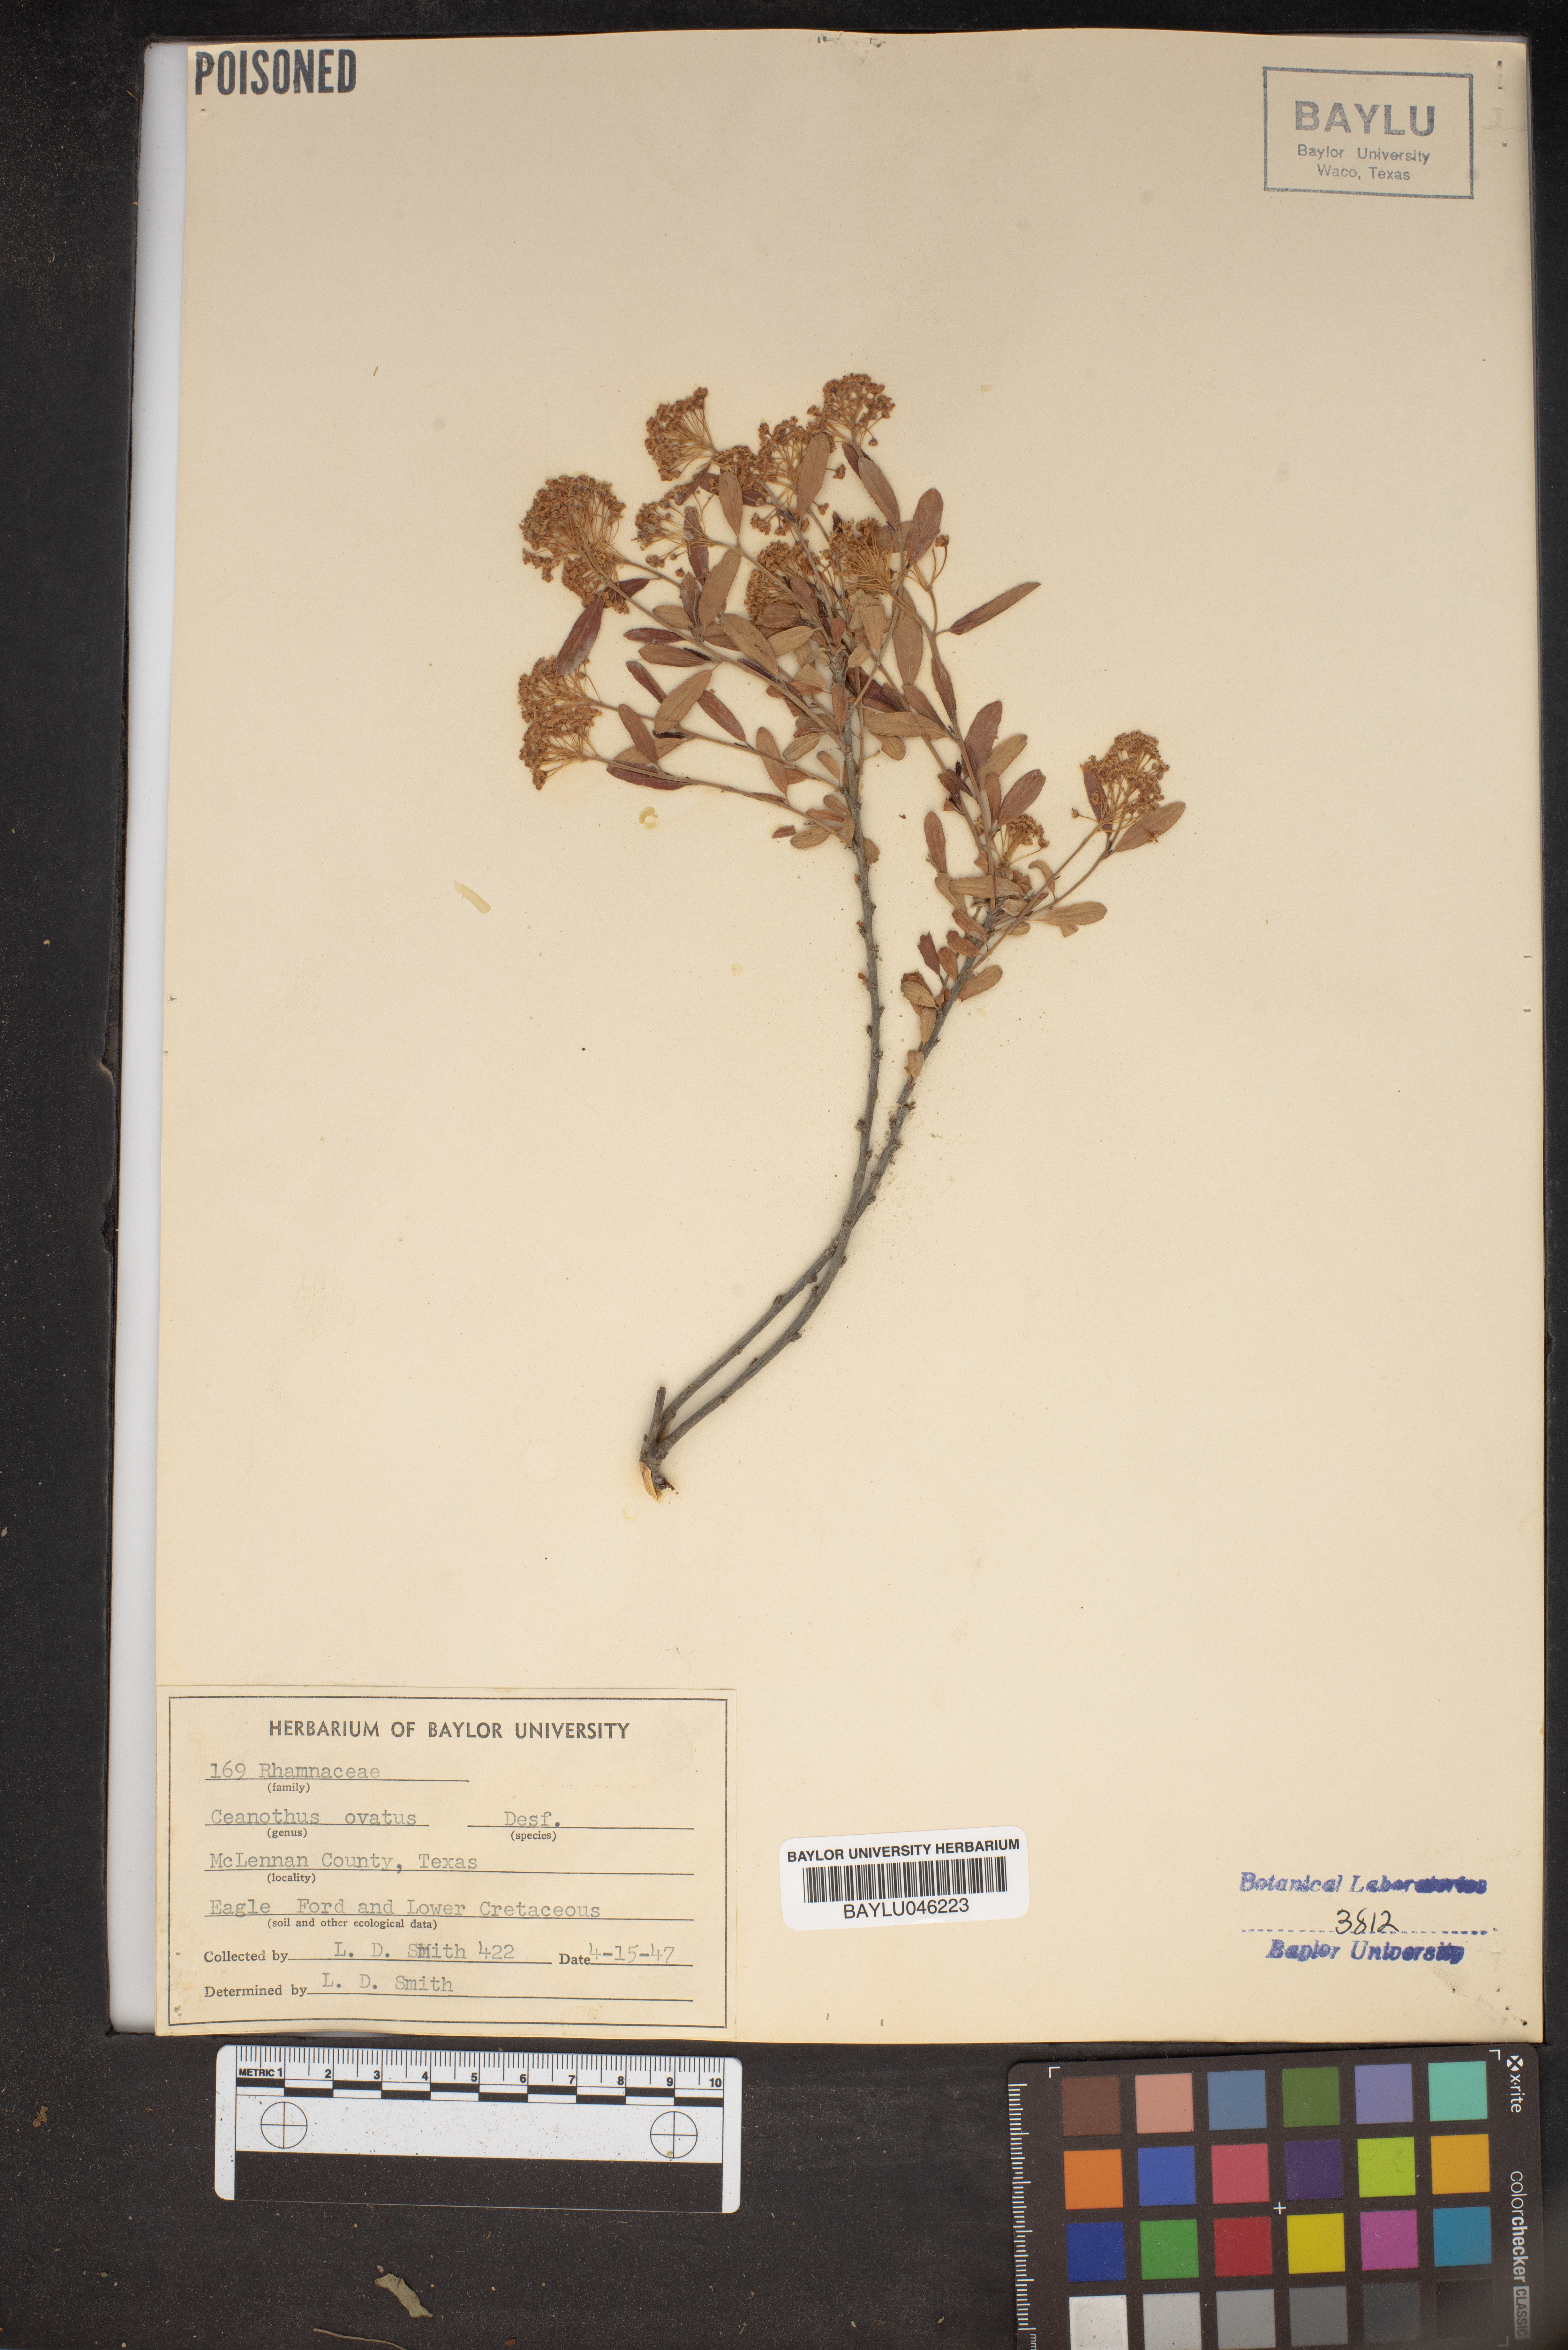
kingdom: Plantae
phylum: Tracheophyta
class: Magnoliopsida
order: Rosales
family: Rhamnaceae
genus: Ceanothus
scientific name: Ceanothus herbaceus
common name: Inland ceanothus
